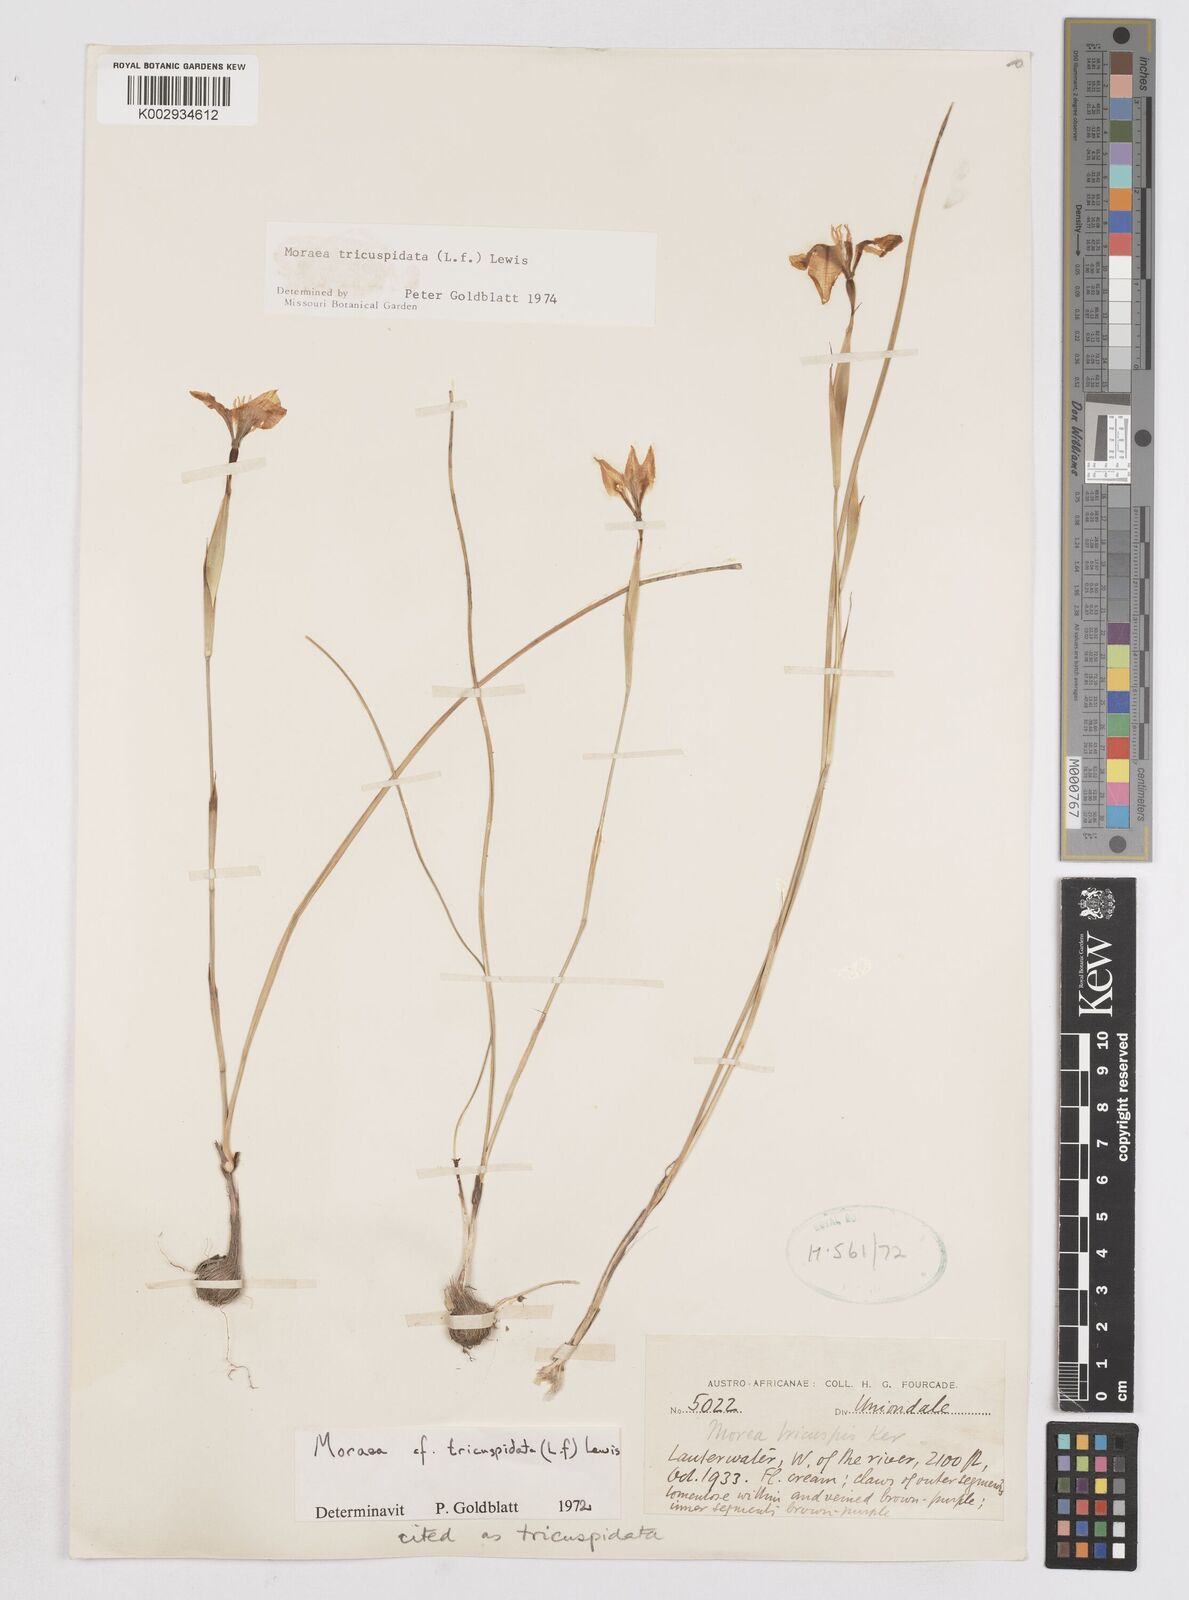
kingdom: Plantae
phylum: Tracheophyta
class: Liliopsida
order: Asparagales
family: Iridaceae
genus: Moraea
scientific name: Moraea tricuspidata
